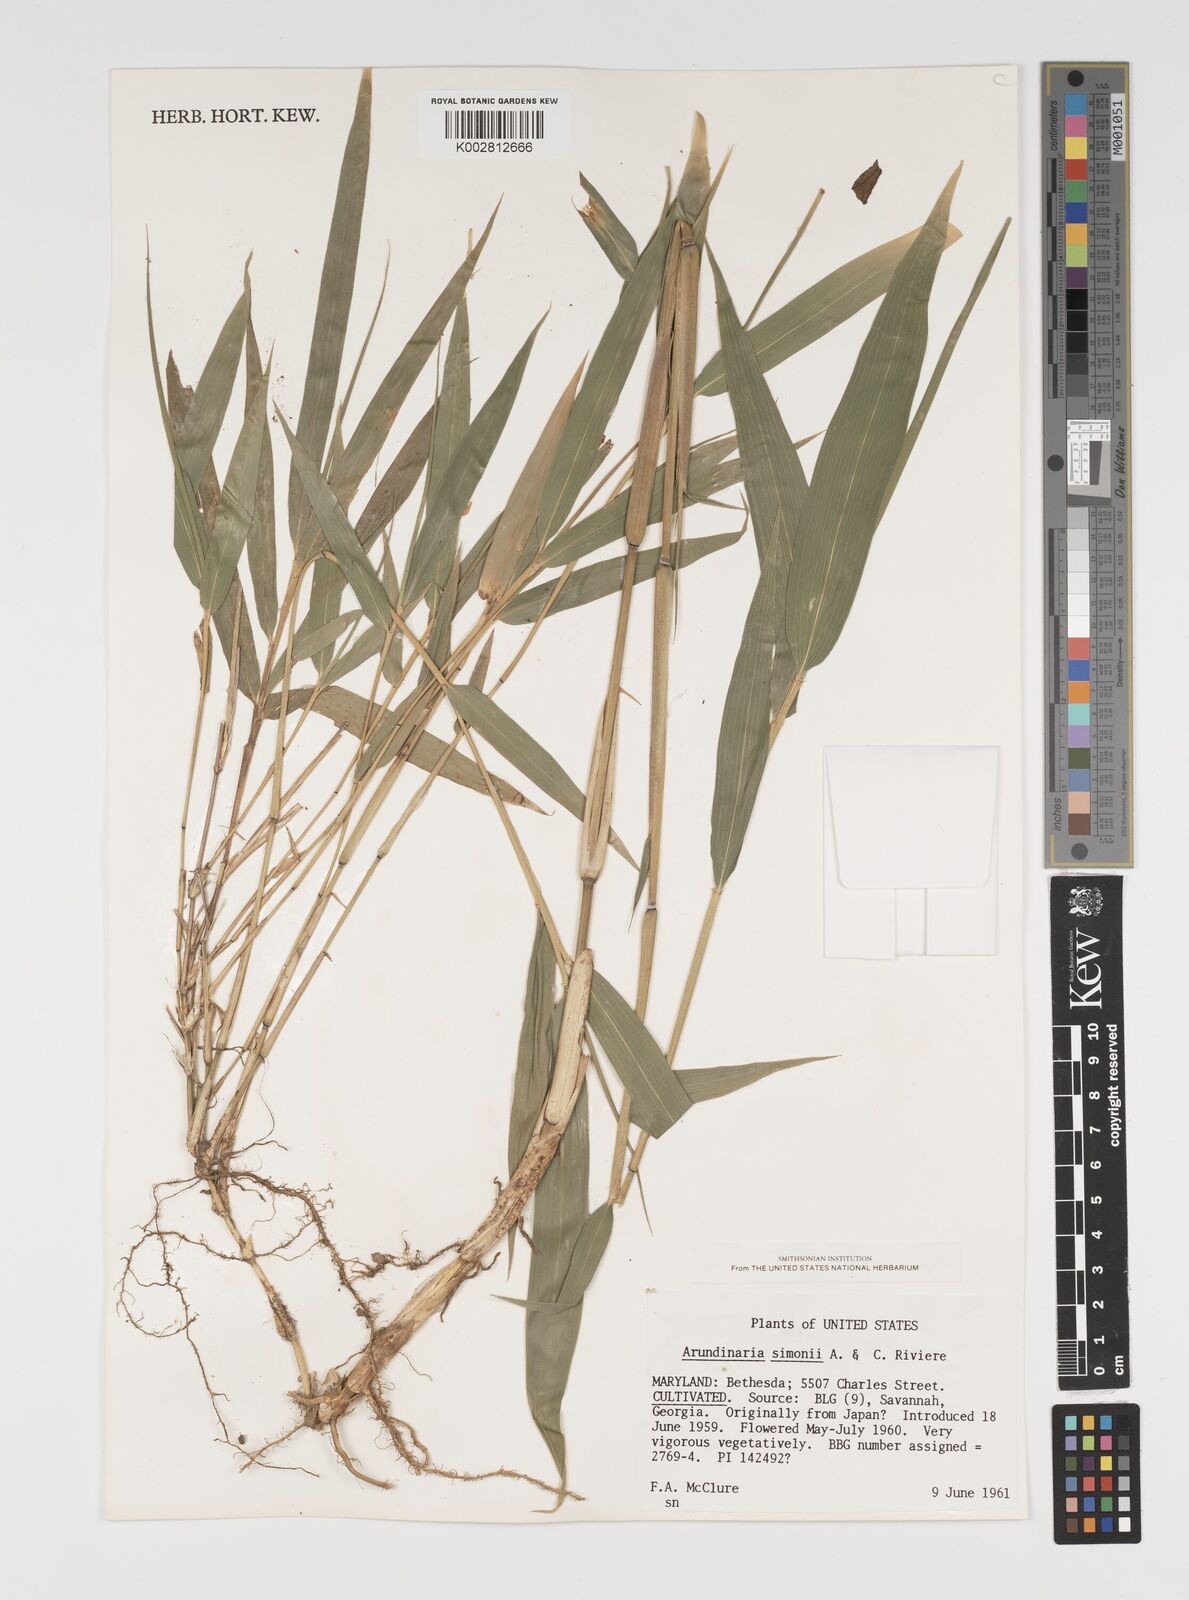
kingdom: Plantae
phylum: Tracheophyta
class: Liliopsida
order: Poales
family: Poaceae
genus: Pleioblastus
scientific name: Pleioblastus simonii
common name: Simon bamboo
